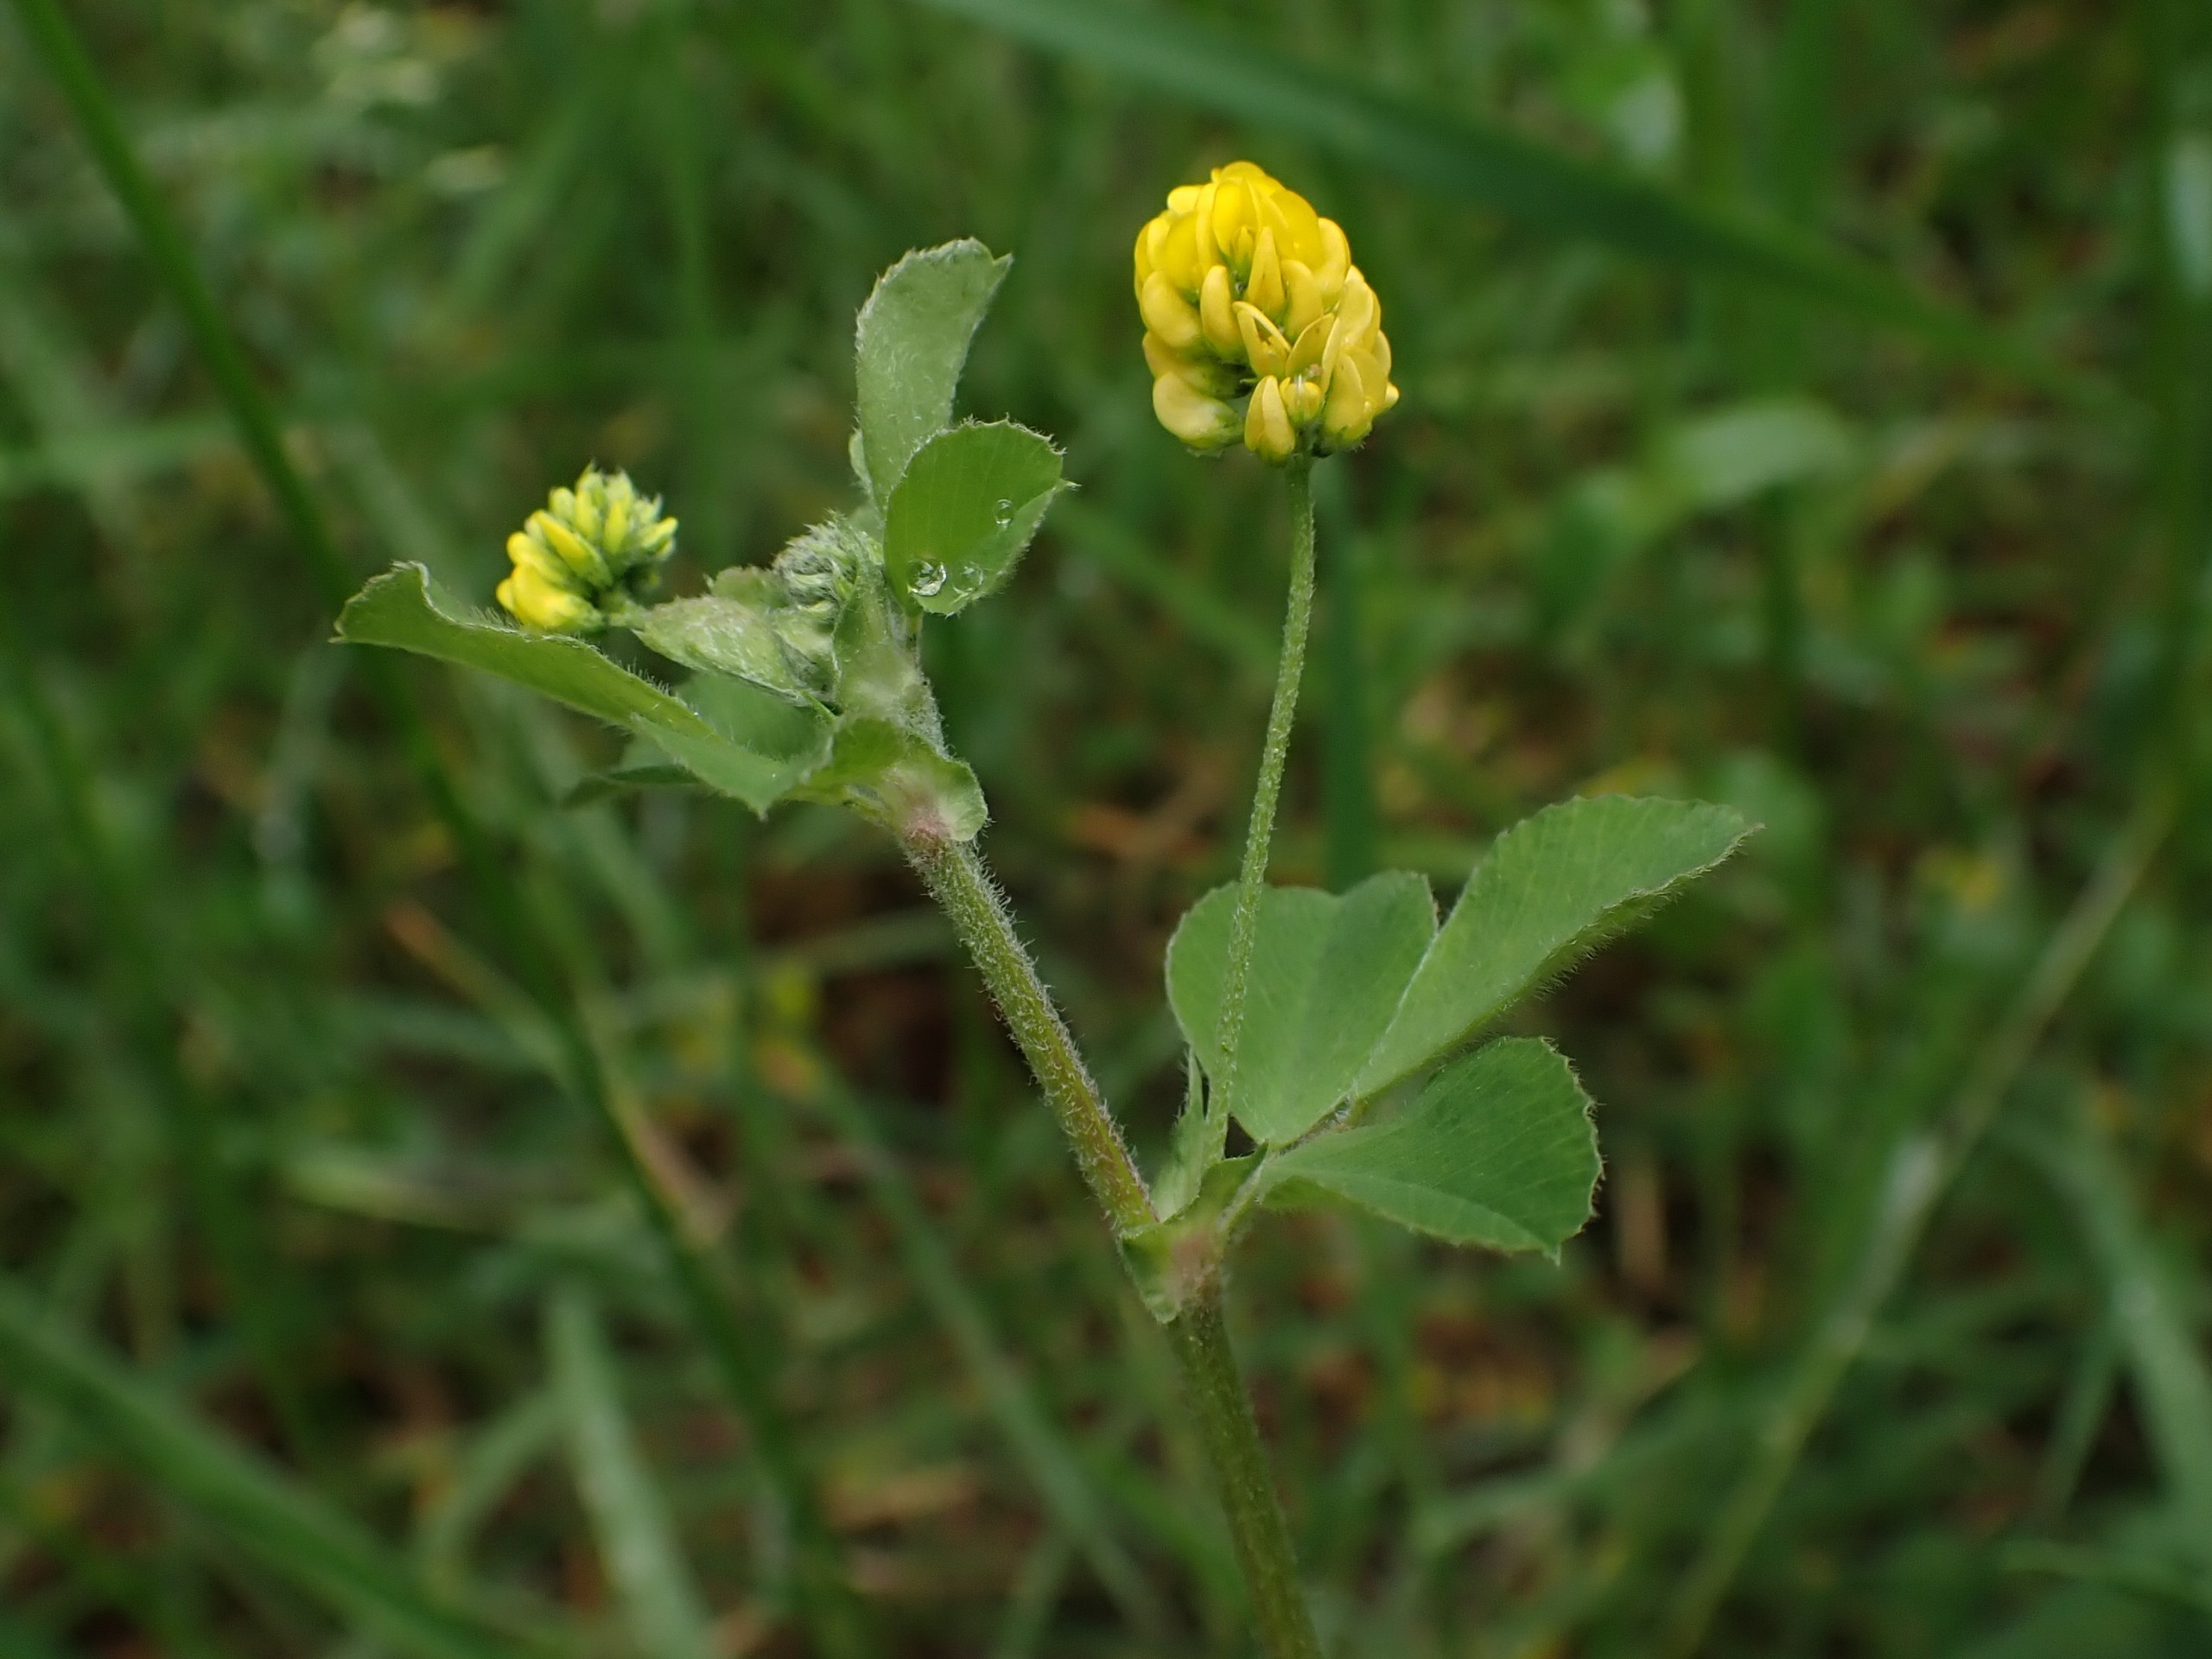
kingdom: Plantae
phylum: Tracheophyta
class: Magnoliopsida
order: Fabales
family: Fabaceae
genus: Medicago
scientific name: Medicago lupulina
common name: Humle-sneglebælg
